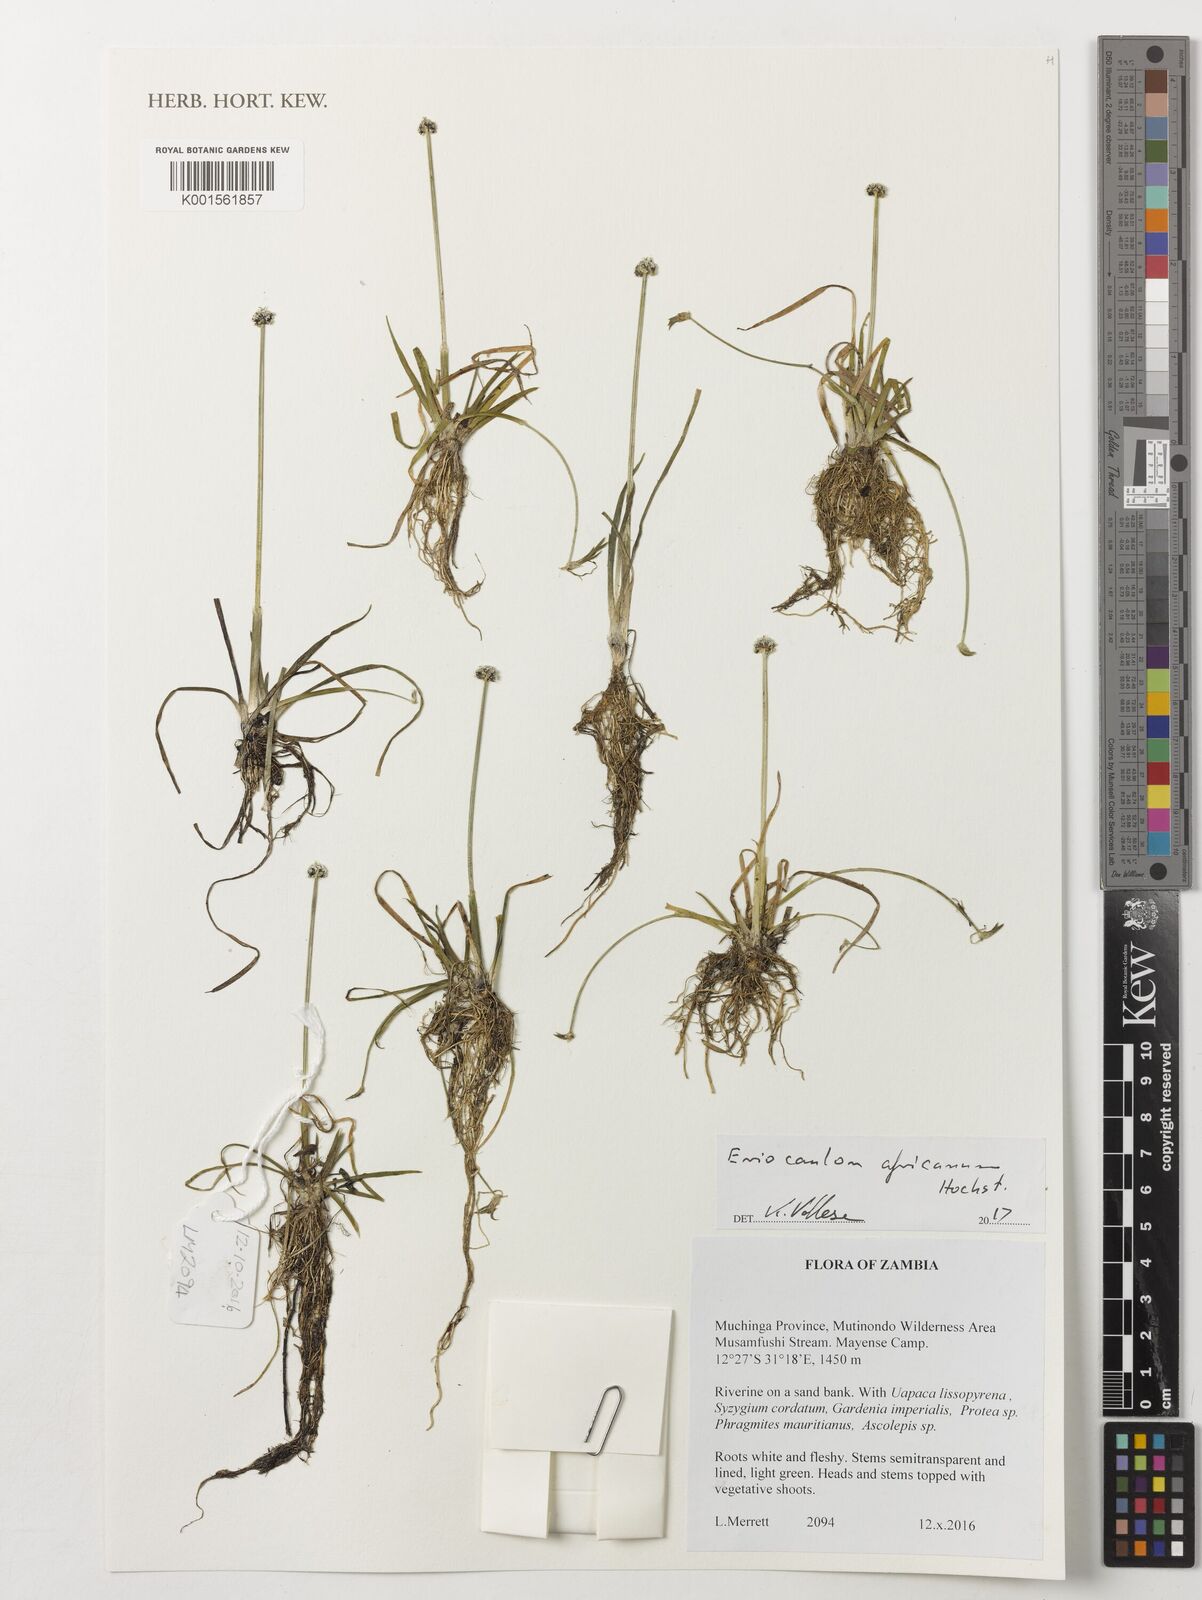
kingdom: Plantae
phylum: Tracheophyta
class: Liliopsida
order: Poales
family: Eriocaulaceae
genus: Eriocaulon
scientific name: Eriocaulon africanum
